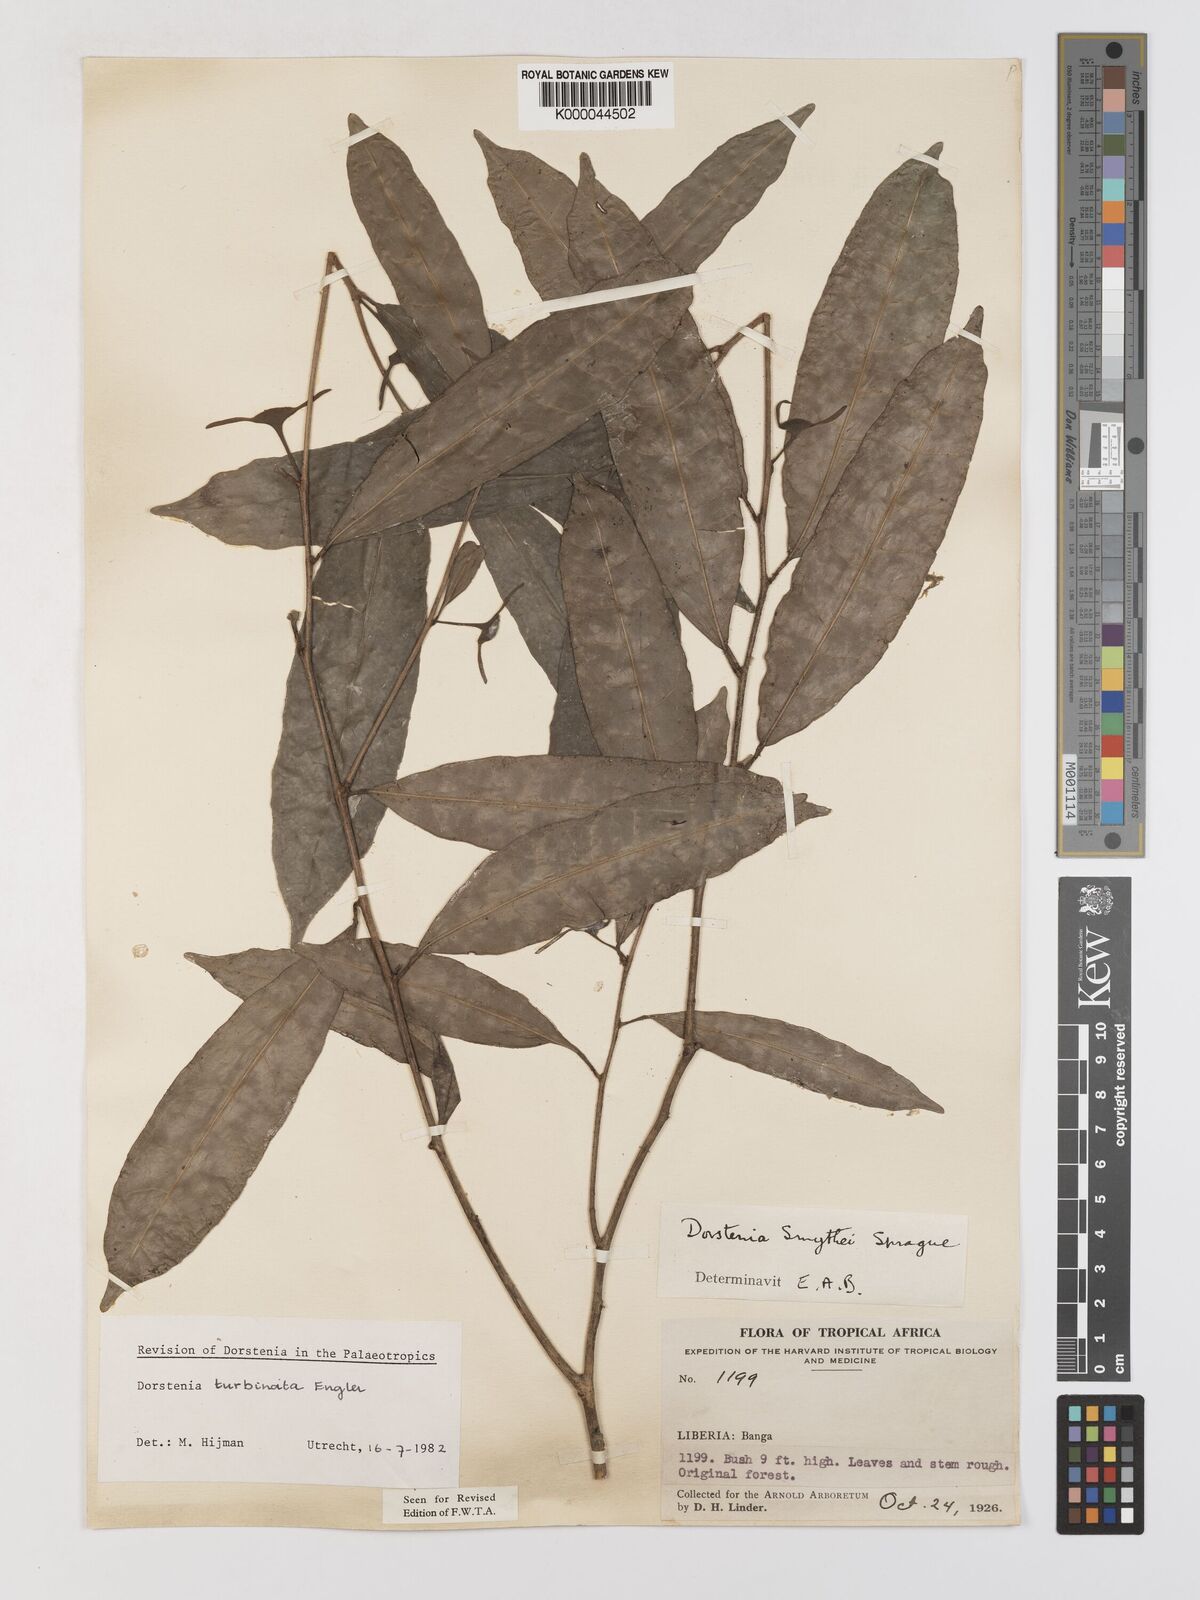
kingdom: Plantae
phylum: Tracheophyta
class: Magnoliopsida
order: Rosales
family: Moraceae
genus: Hijmania
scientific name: Hijmania turbinata
